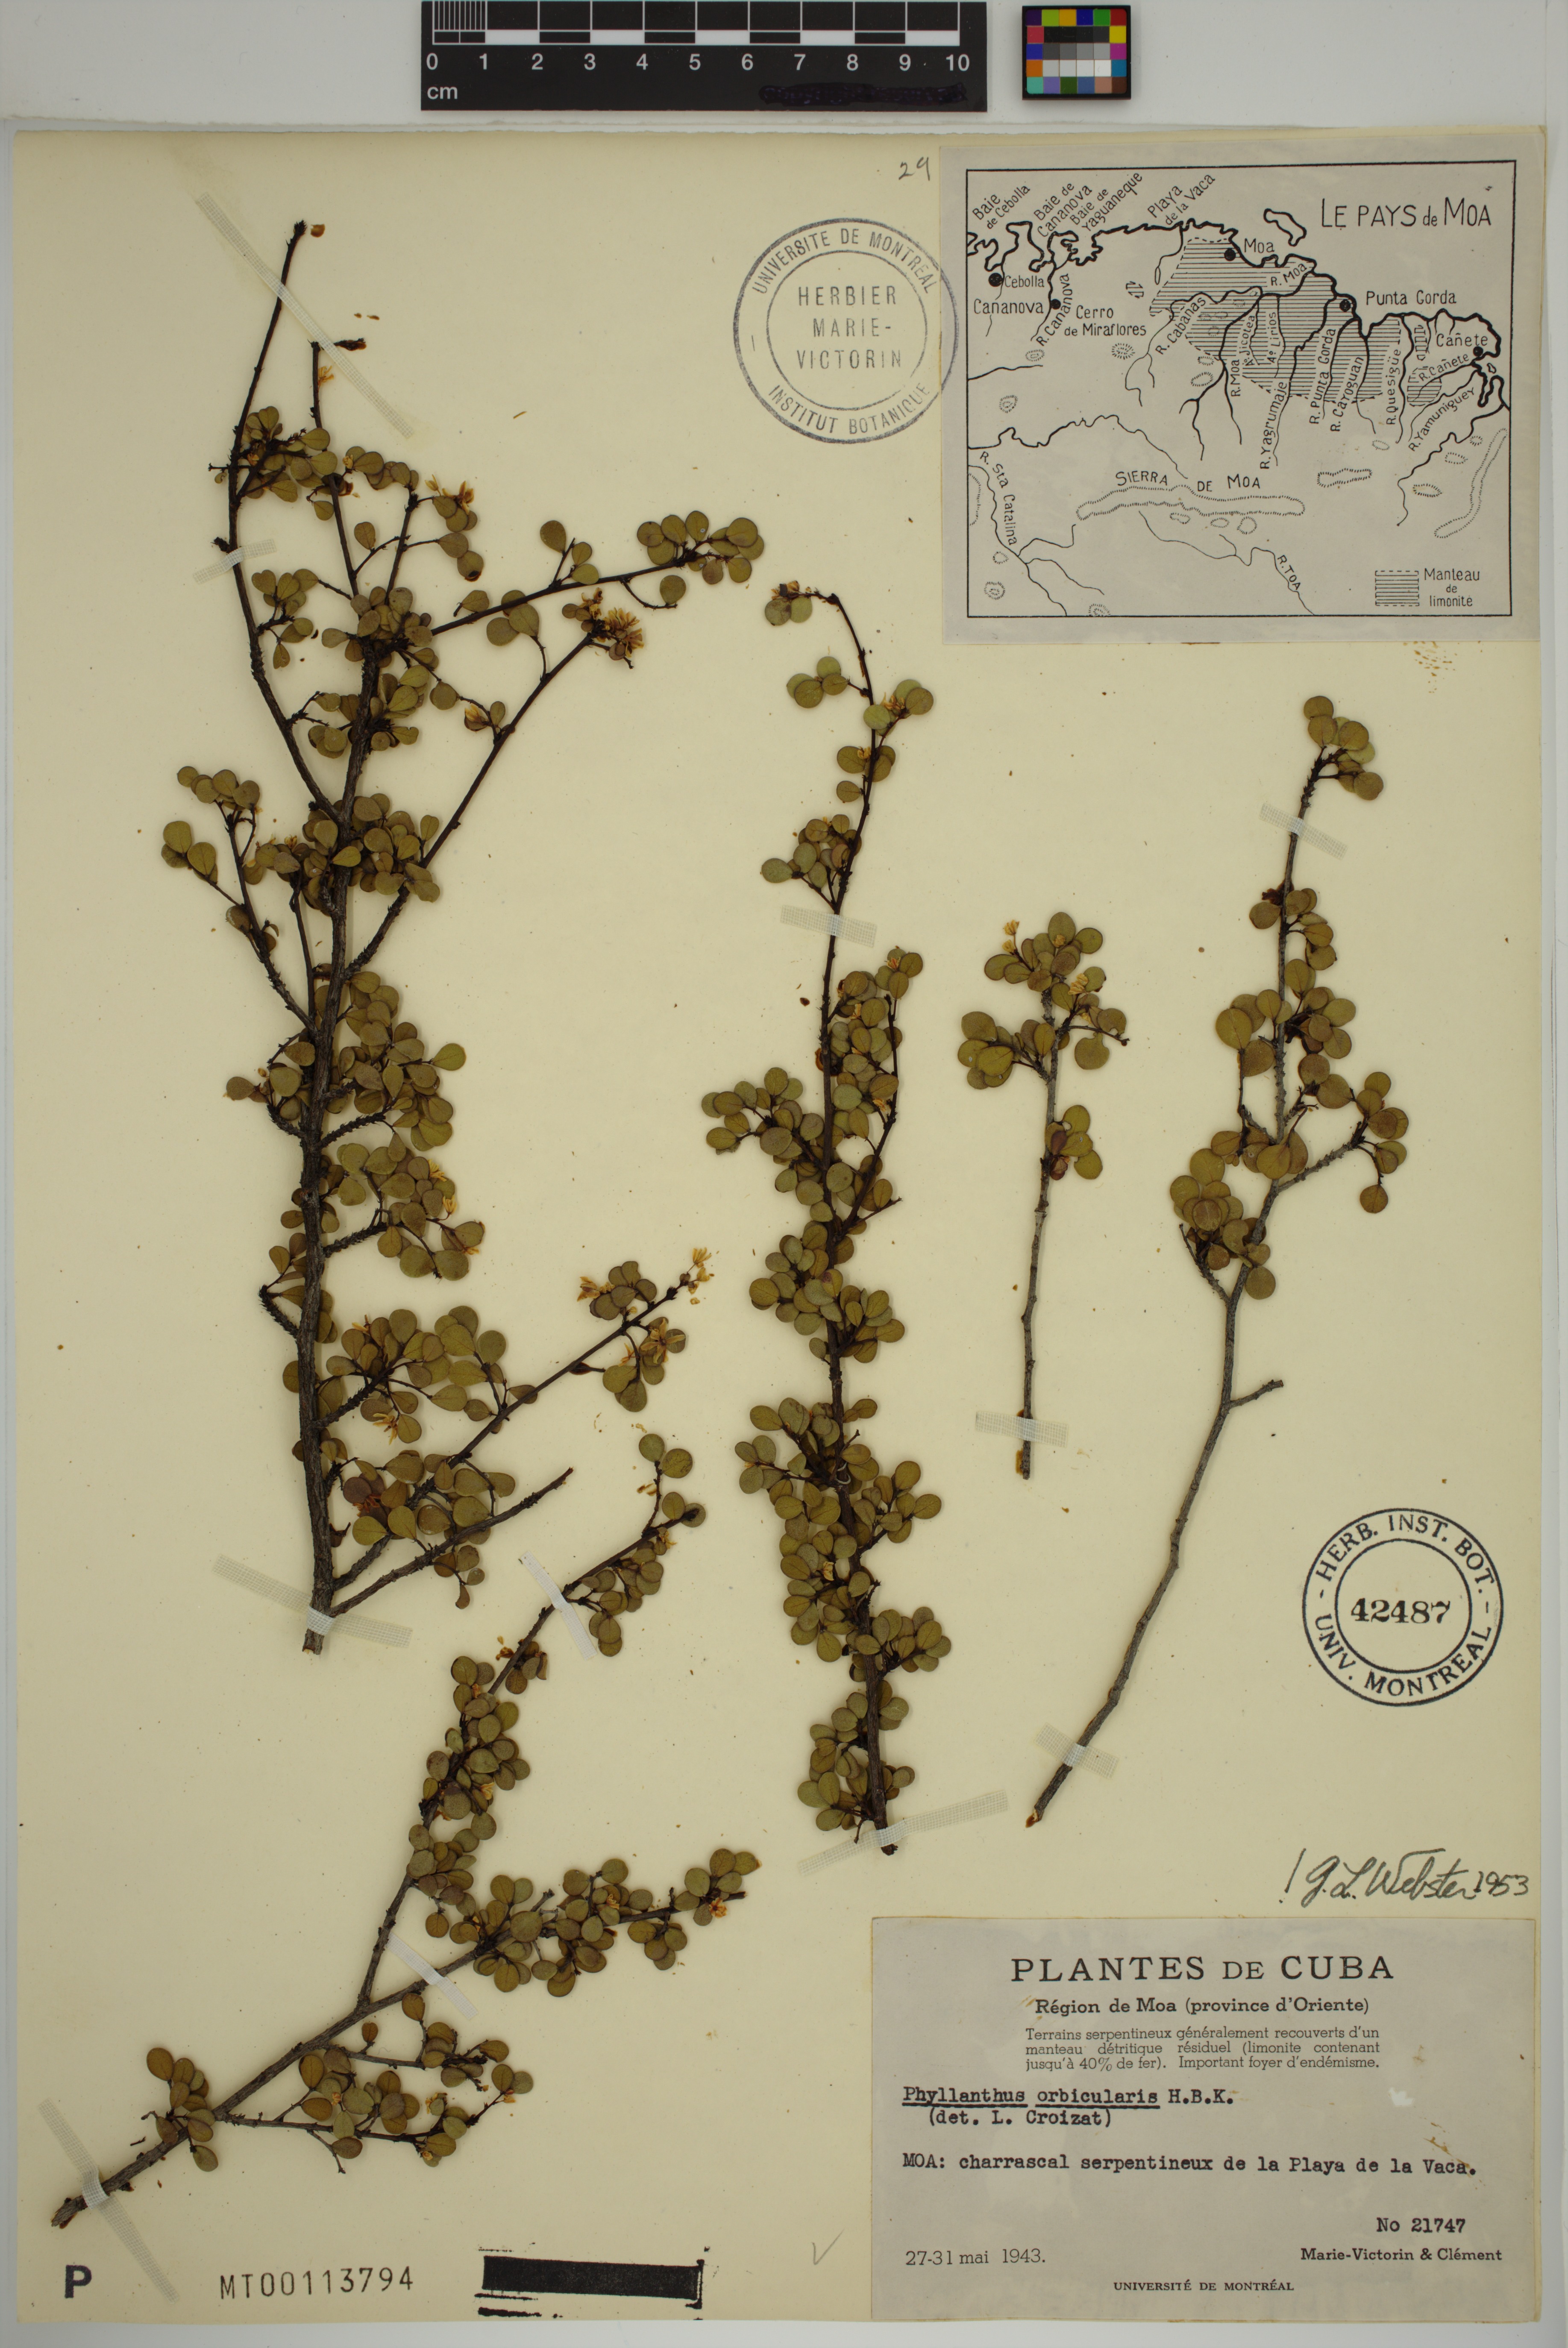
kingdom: Plantae
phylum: Tracheophyta
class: Magnoliopsida
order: Malpighiales
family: Phyllanthaceae
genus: Phyllanthus
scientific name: Phyllanthus orbicularis
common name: Wedge leaf-flower
